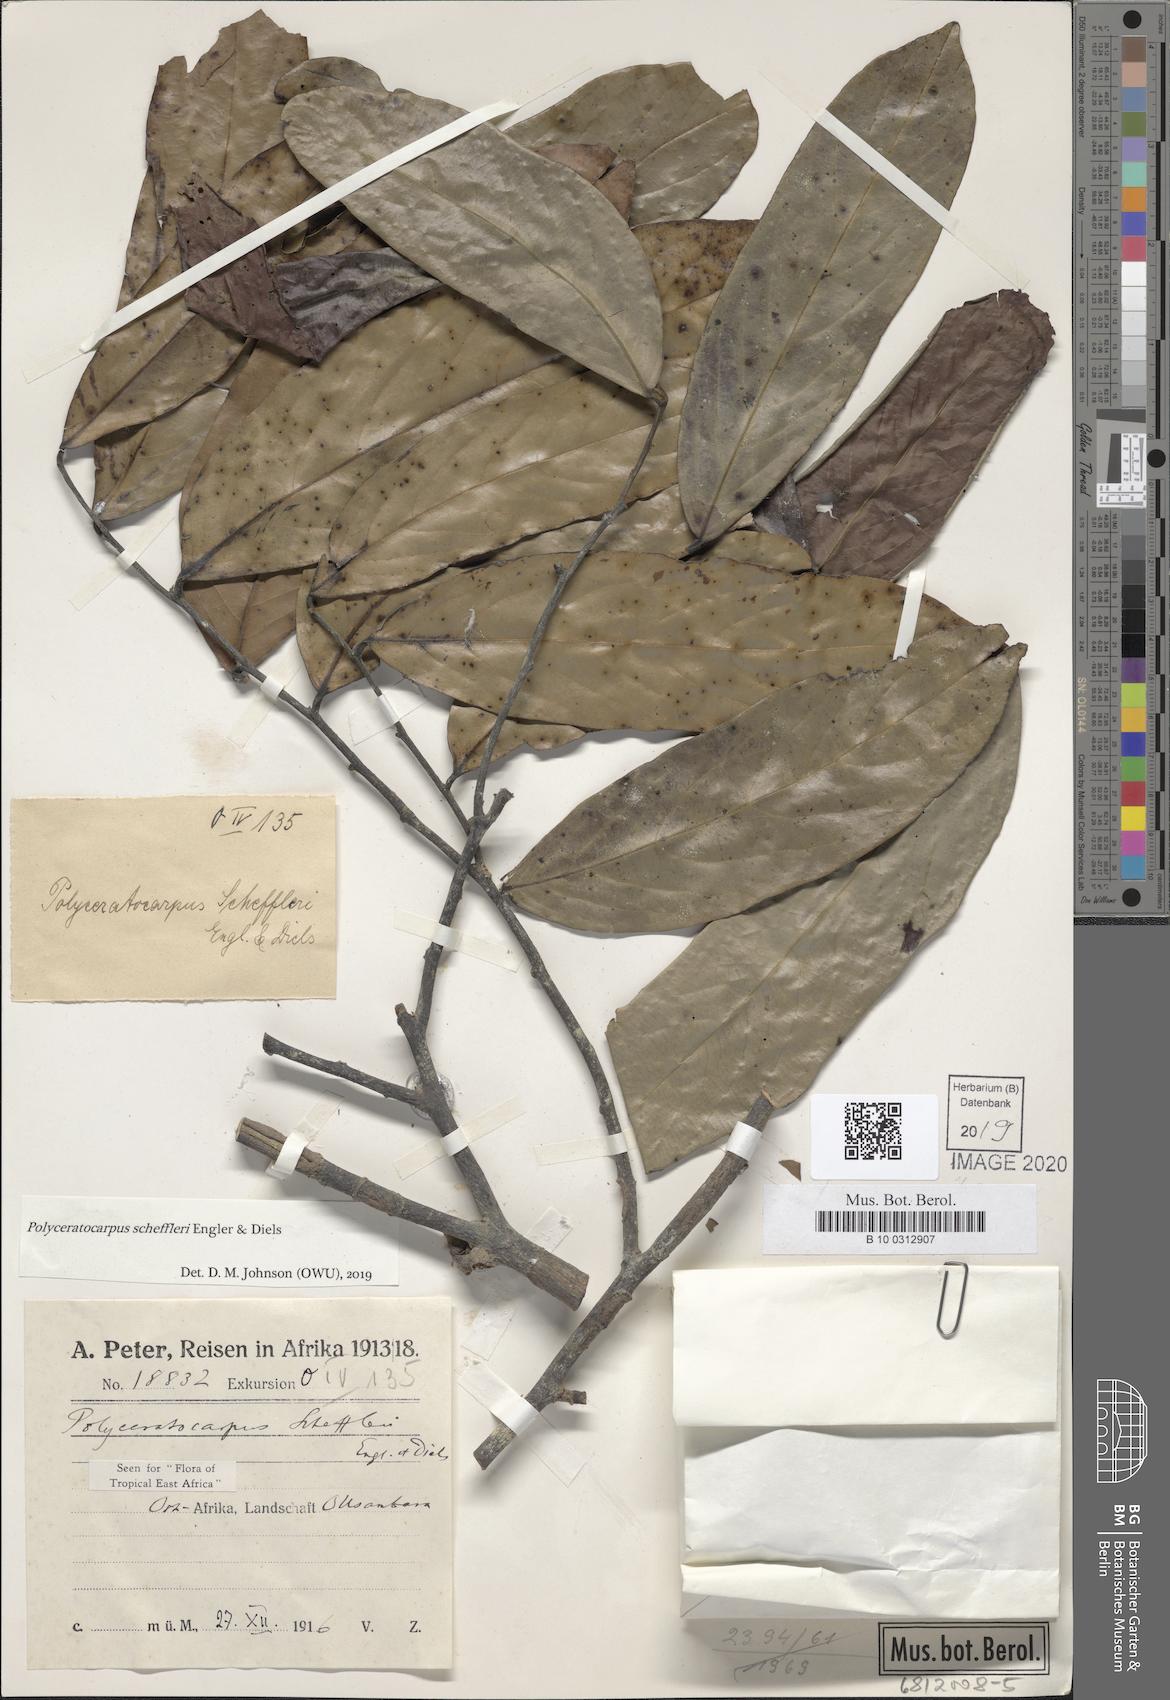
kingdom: Plantae
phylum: Tracheophyta
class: Magnoliopsida
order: Magnoliales
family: Annonaceae
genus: Polyceratocarpus
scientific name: Polyceratocarpus scheffleri
